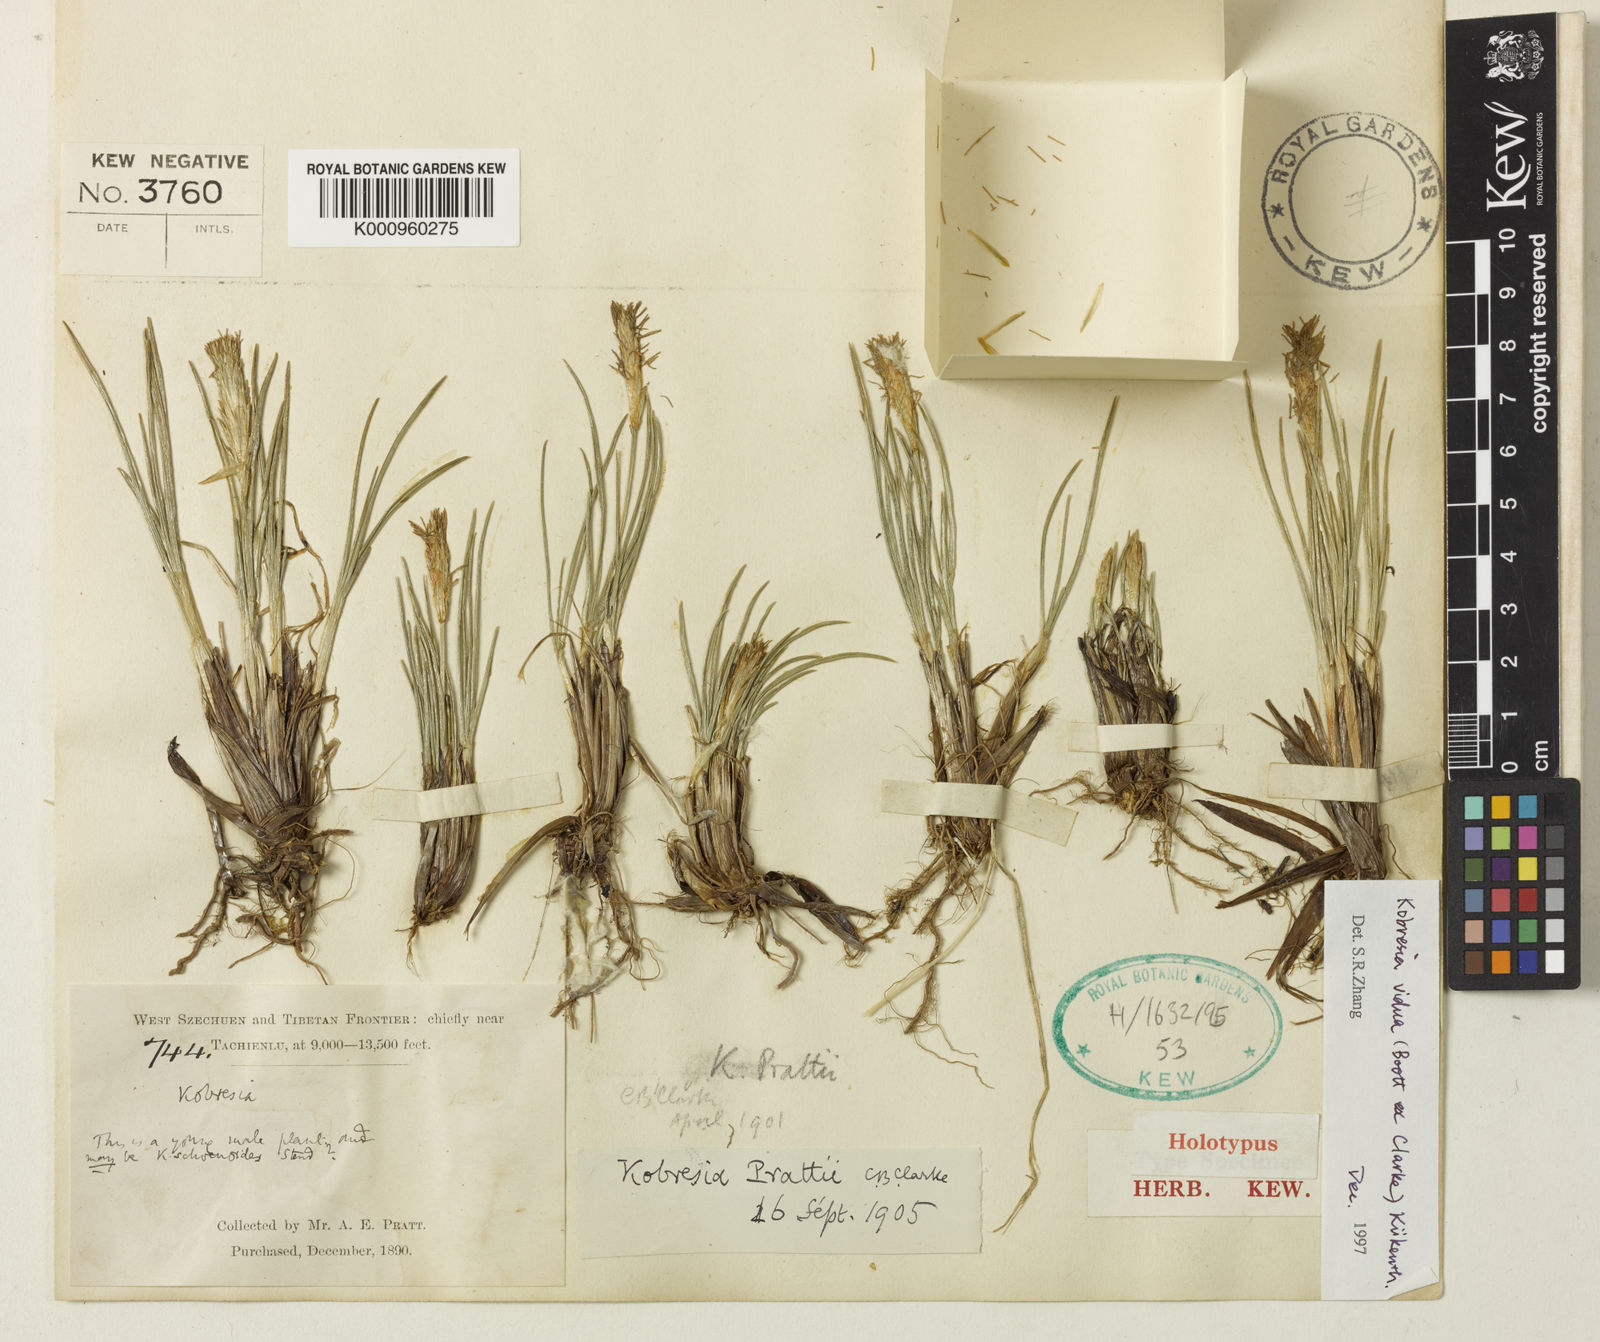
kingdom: Plantae
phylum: Tracheophyta
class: Liliopsida
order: Poales
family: Cyperaceae
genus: Carex
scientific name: Carex
